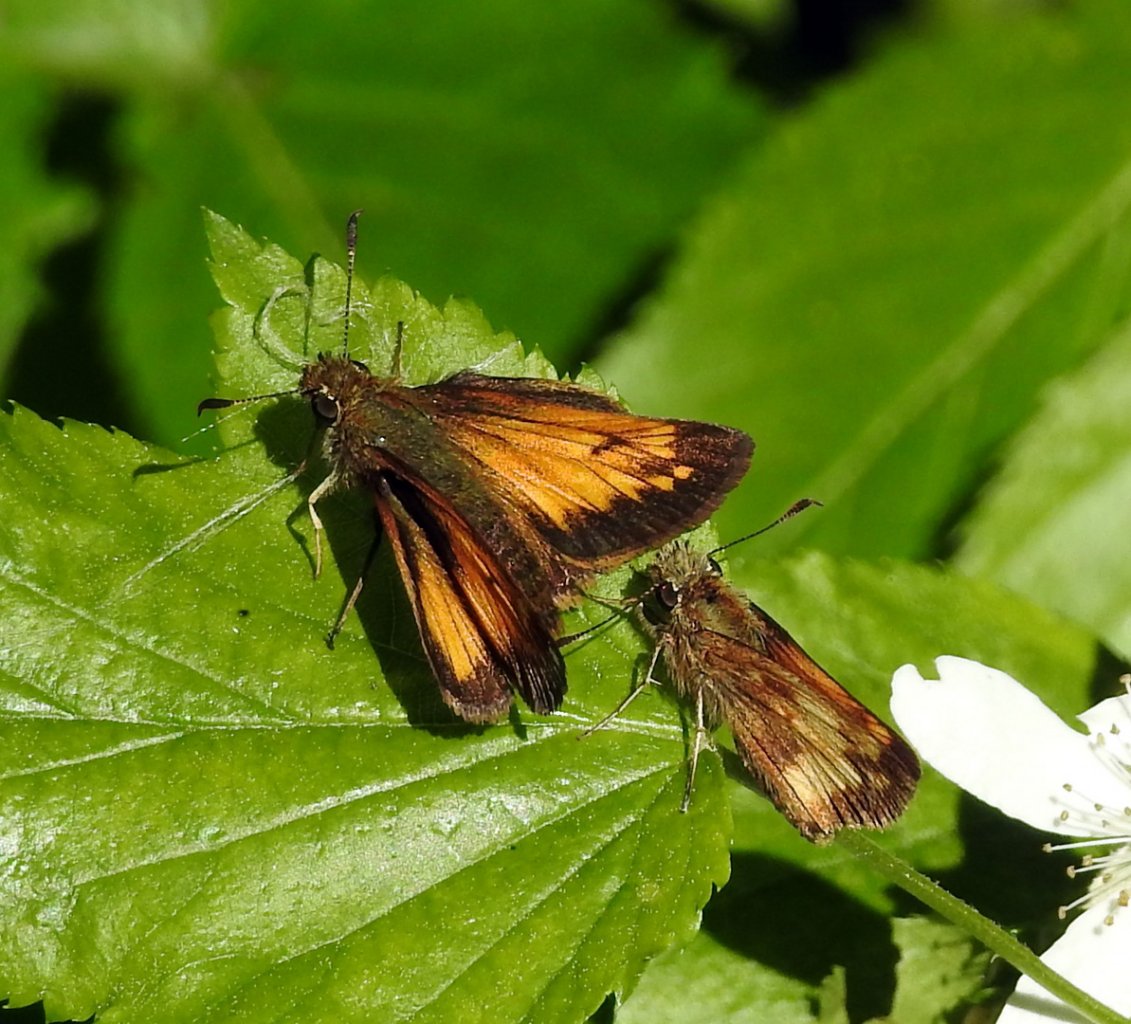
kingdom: Animalia
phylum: Arthropoda
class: Insecta
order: Lepidoptera
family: Hesperiidae
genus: Lon
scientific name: Lon hobomok
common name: Hobomok Skipper
